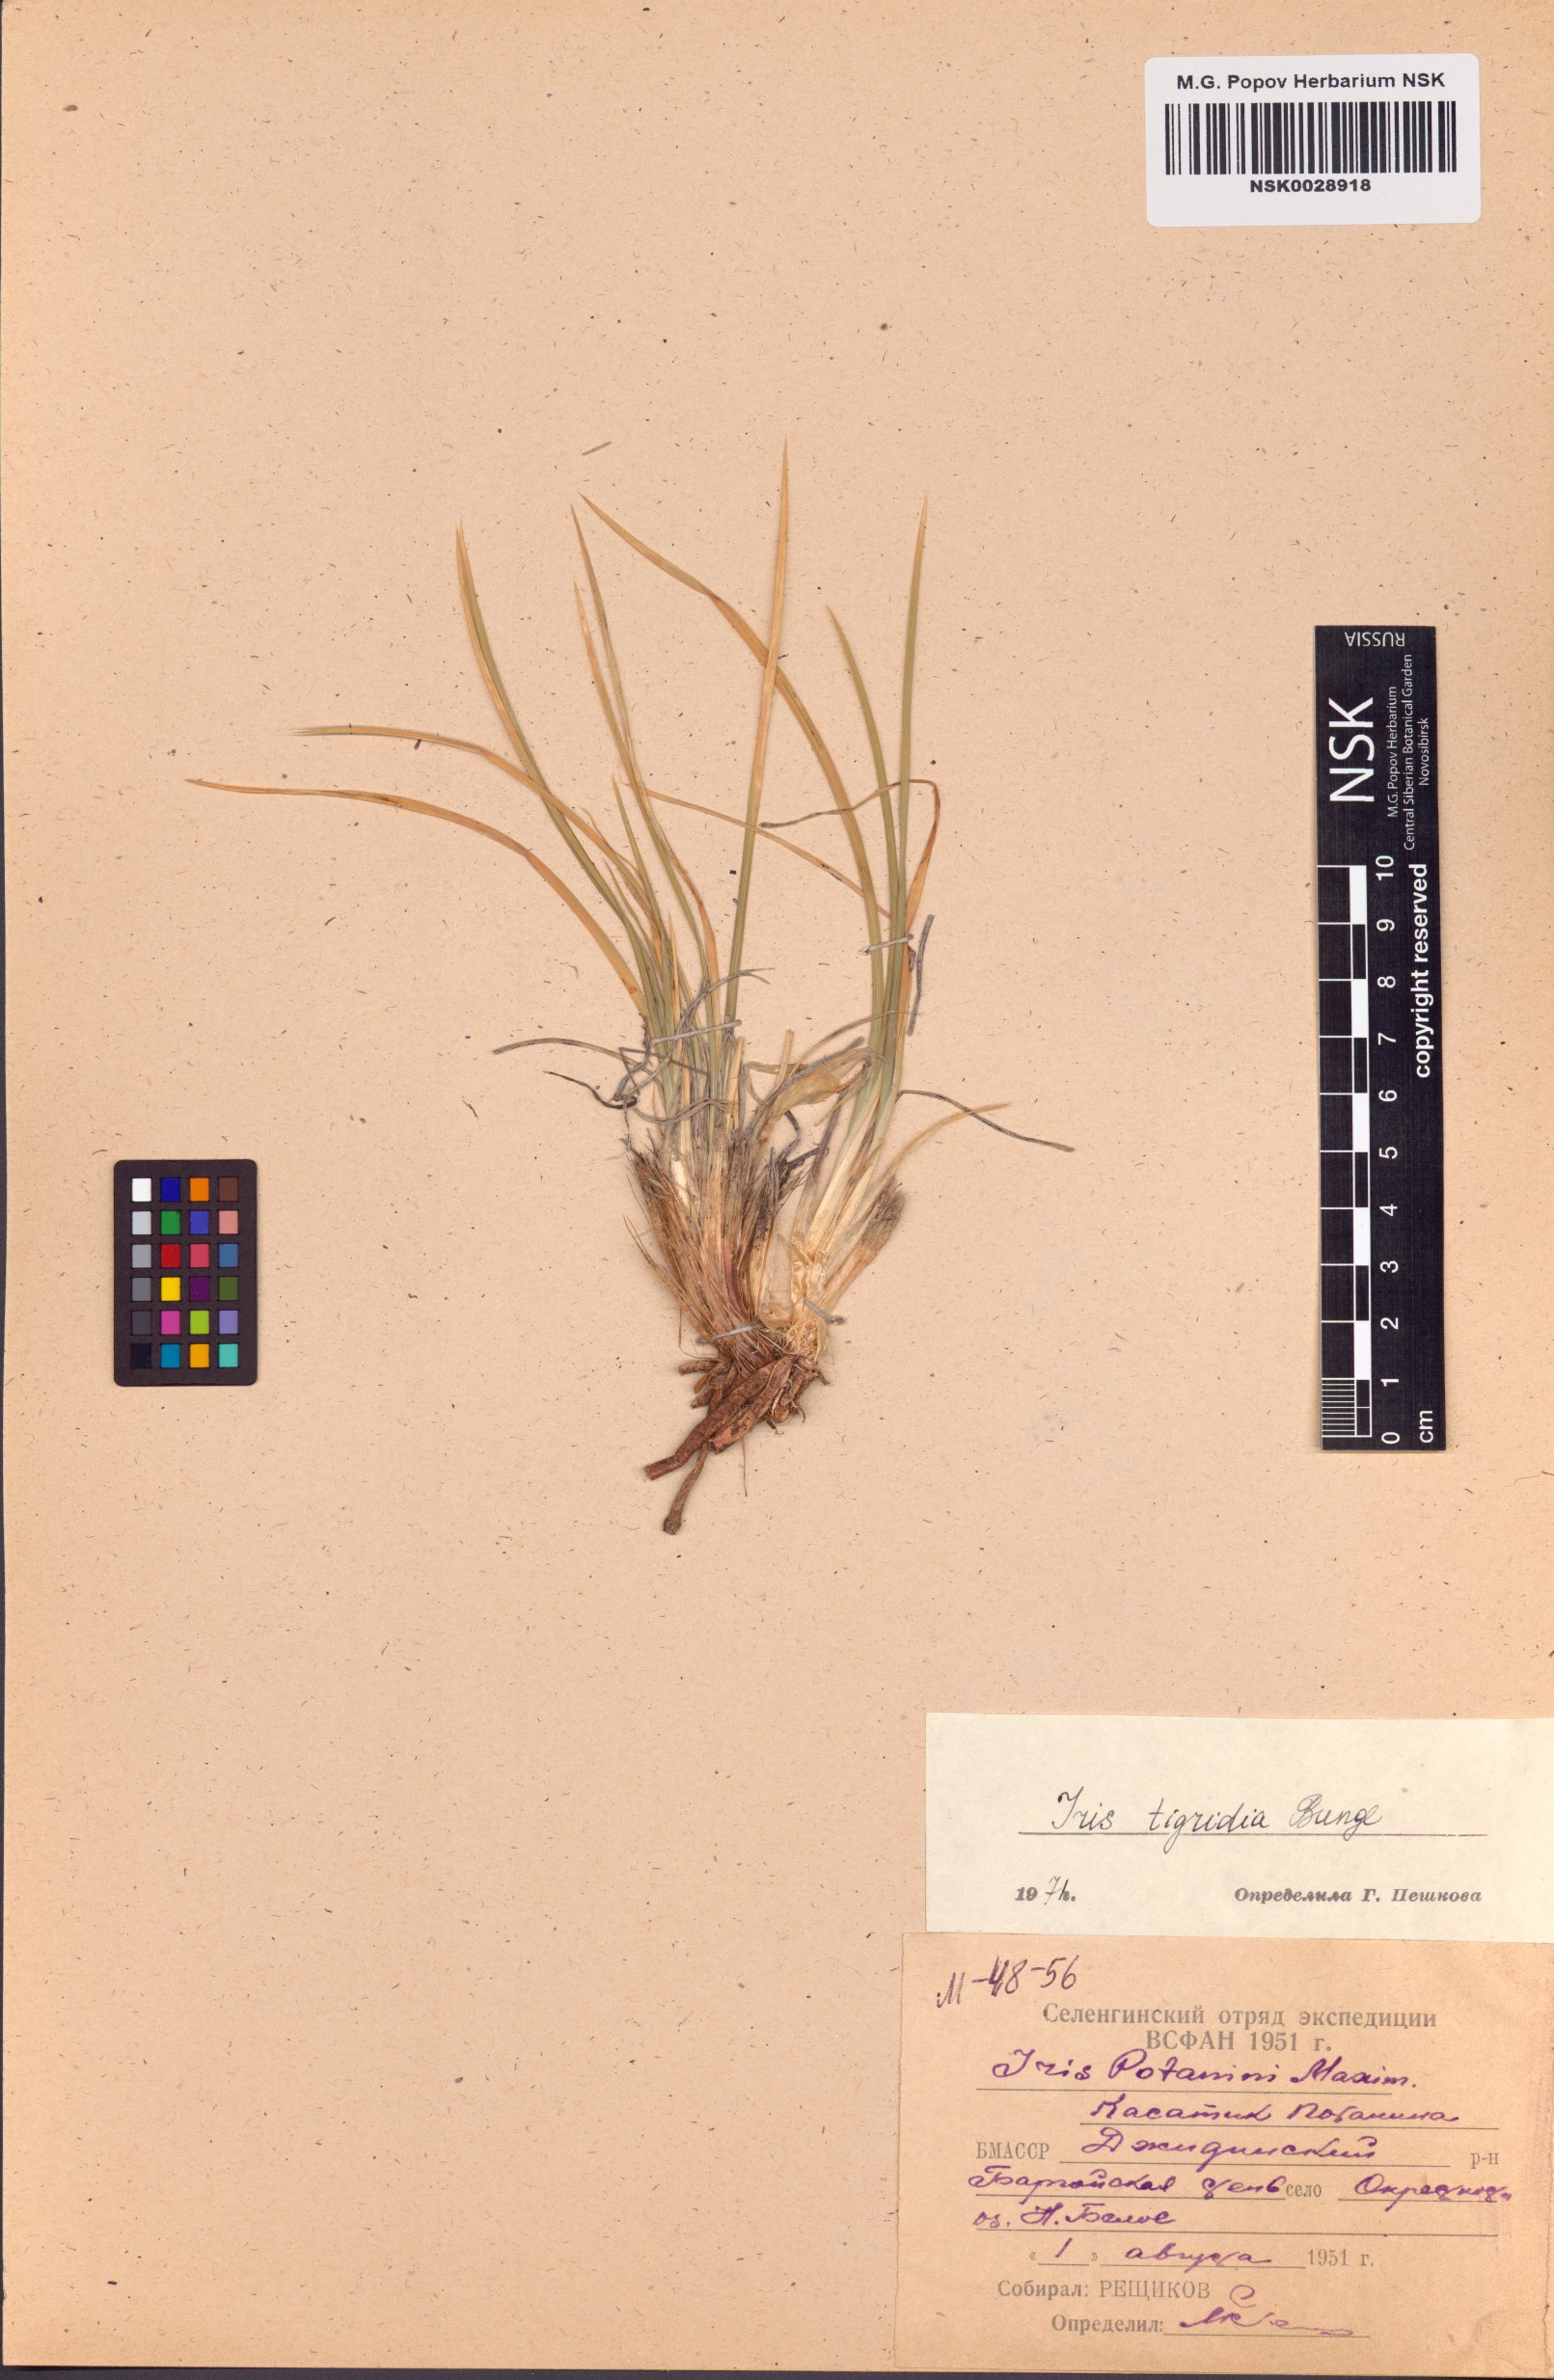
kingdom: Plantae
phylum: Tracheophyta
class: Liliopsida
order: Asparagales
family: Iridaceae
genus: Iris
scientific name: Iris tigridia
